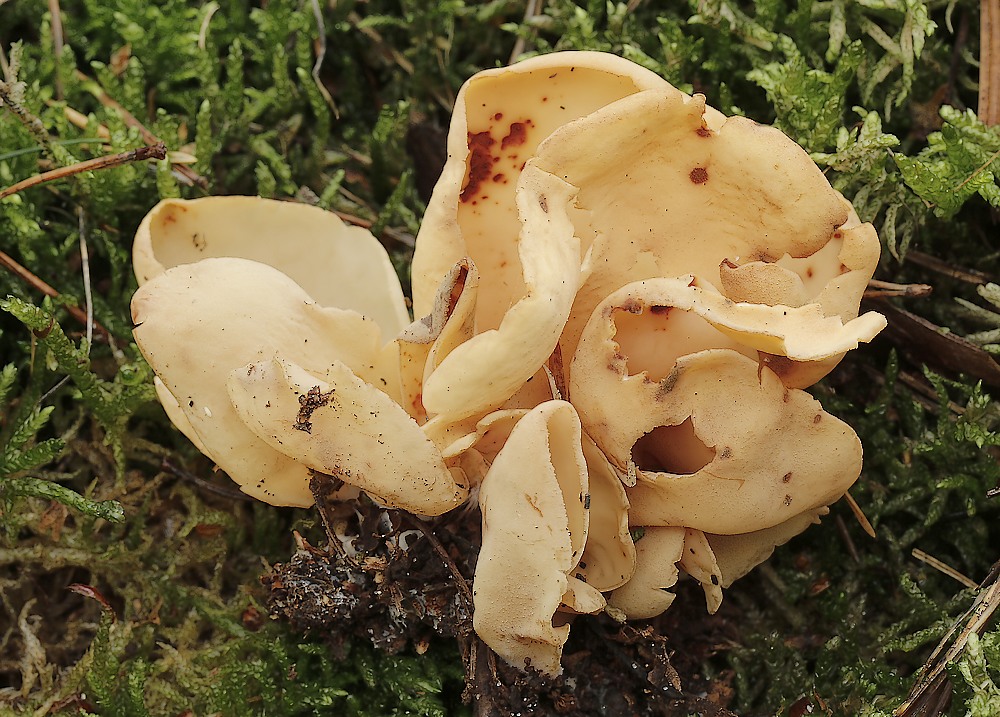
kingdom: Fungi
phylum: Ascomycota
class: Pezizomycetes
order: Pezizales
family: Otideaceae
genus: Otidea
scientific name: Otidea onotica
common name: æsel-ørebæger
